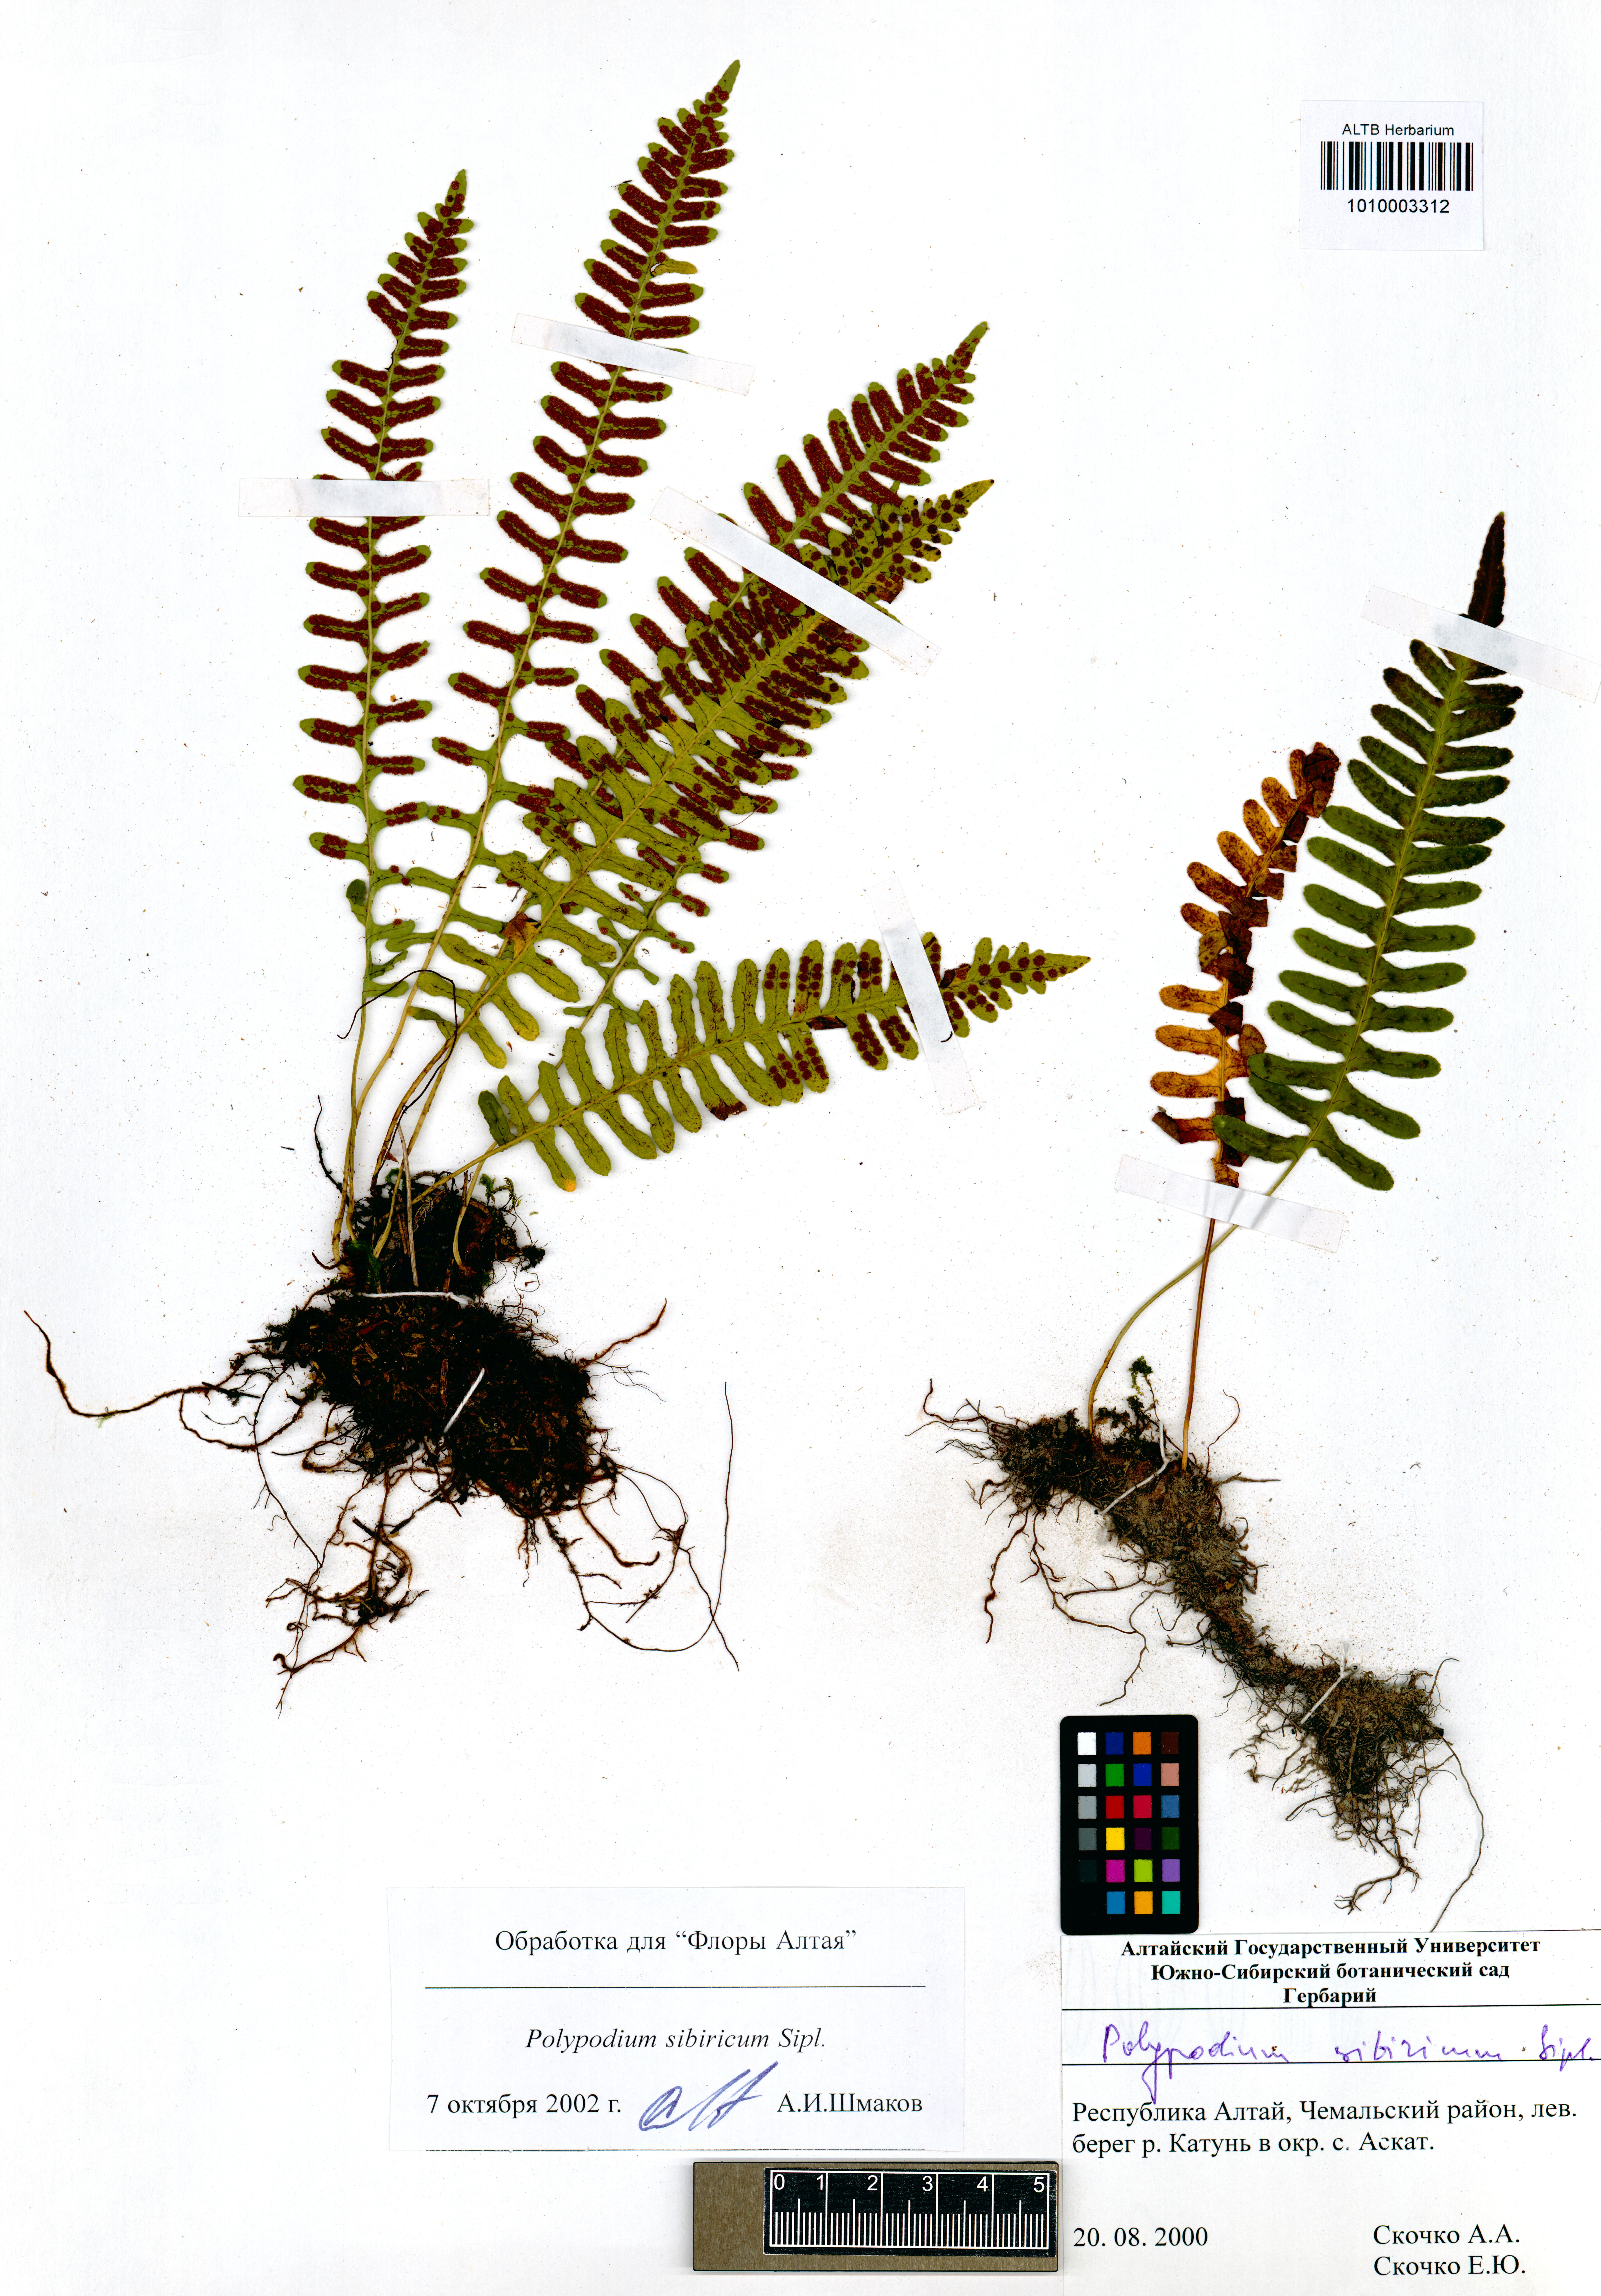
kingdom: Plantae
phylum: Tracheophyta
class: Polypodiopsida
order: Polypodiales
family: Polypodiaceae
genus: Polypodium
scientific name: Polypodium sibiricum
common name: Siberian polypody
